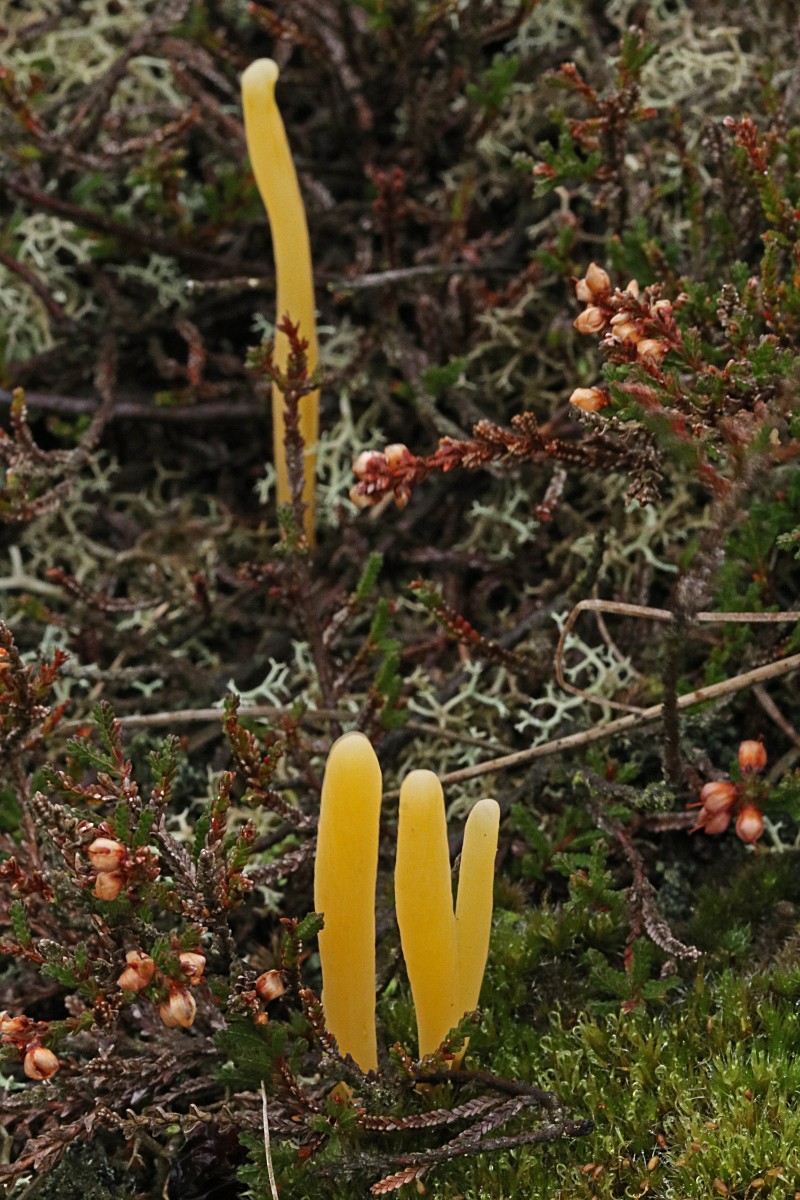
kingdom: Fungi
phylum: Basidiomycota
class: Agaricomycetes
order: Agaricales
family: Clavariaceae
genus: Clavaria
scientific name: Clavaria argillacea
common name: lerfarvet køllesvamp
